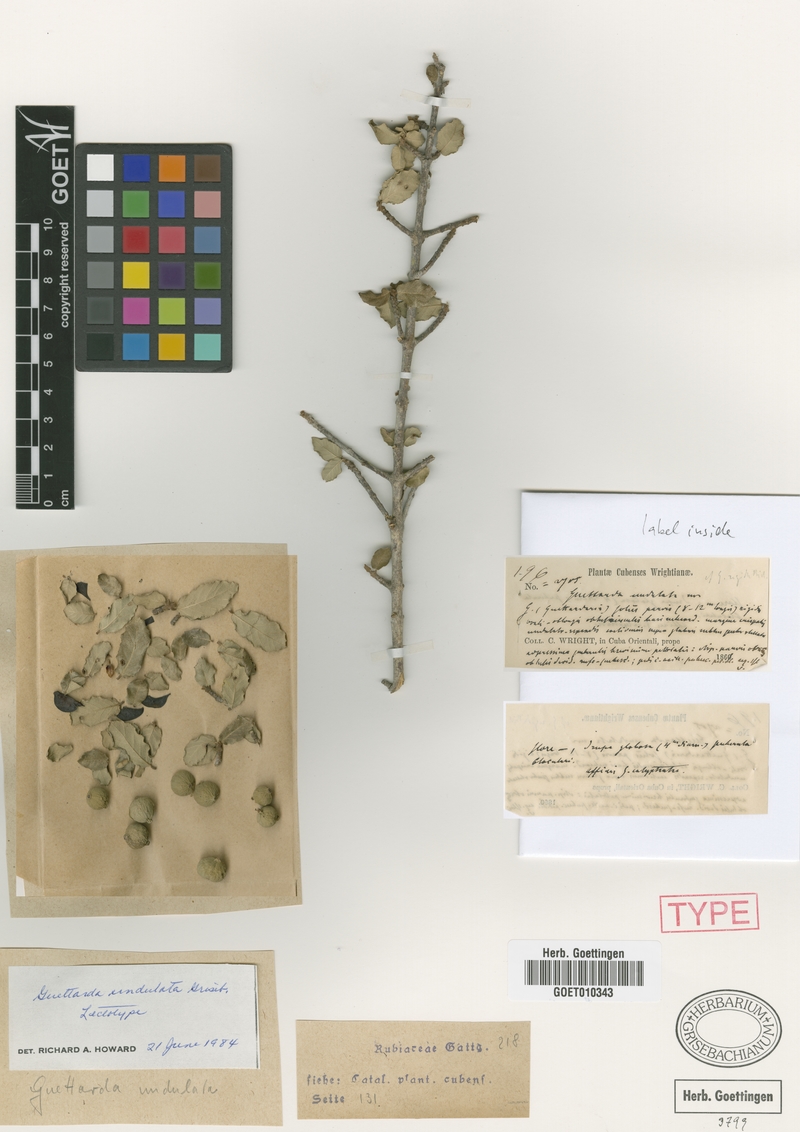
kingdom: Plantae
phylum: Tracheophyta
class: Magnoliopsida
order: Gentianales
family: Rubiaceae
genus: Guettarda
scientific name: Guettarda undulata
